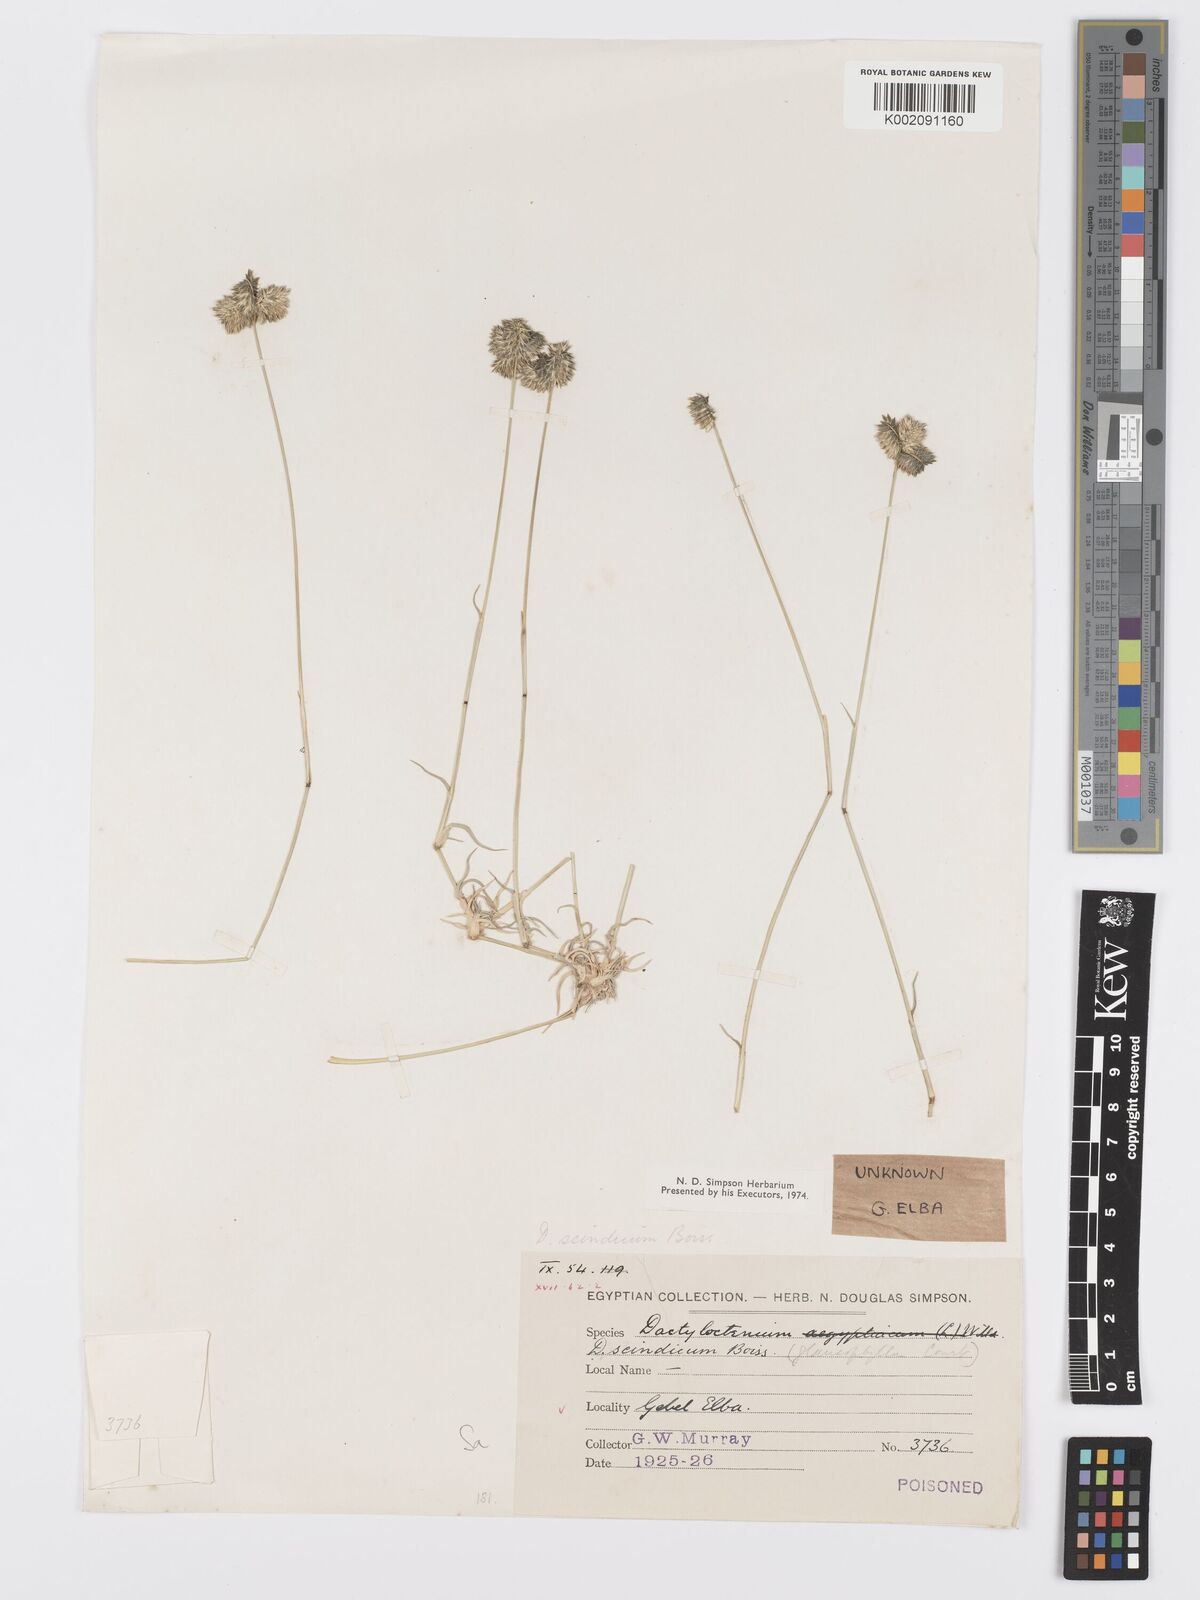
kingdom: Plantae
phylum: Tracheophyta
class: Liliopsida
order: Poales
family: Poaceae
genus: Dactyloctenium
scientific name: Dactyloctenium scindicum
